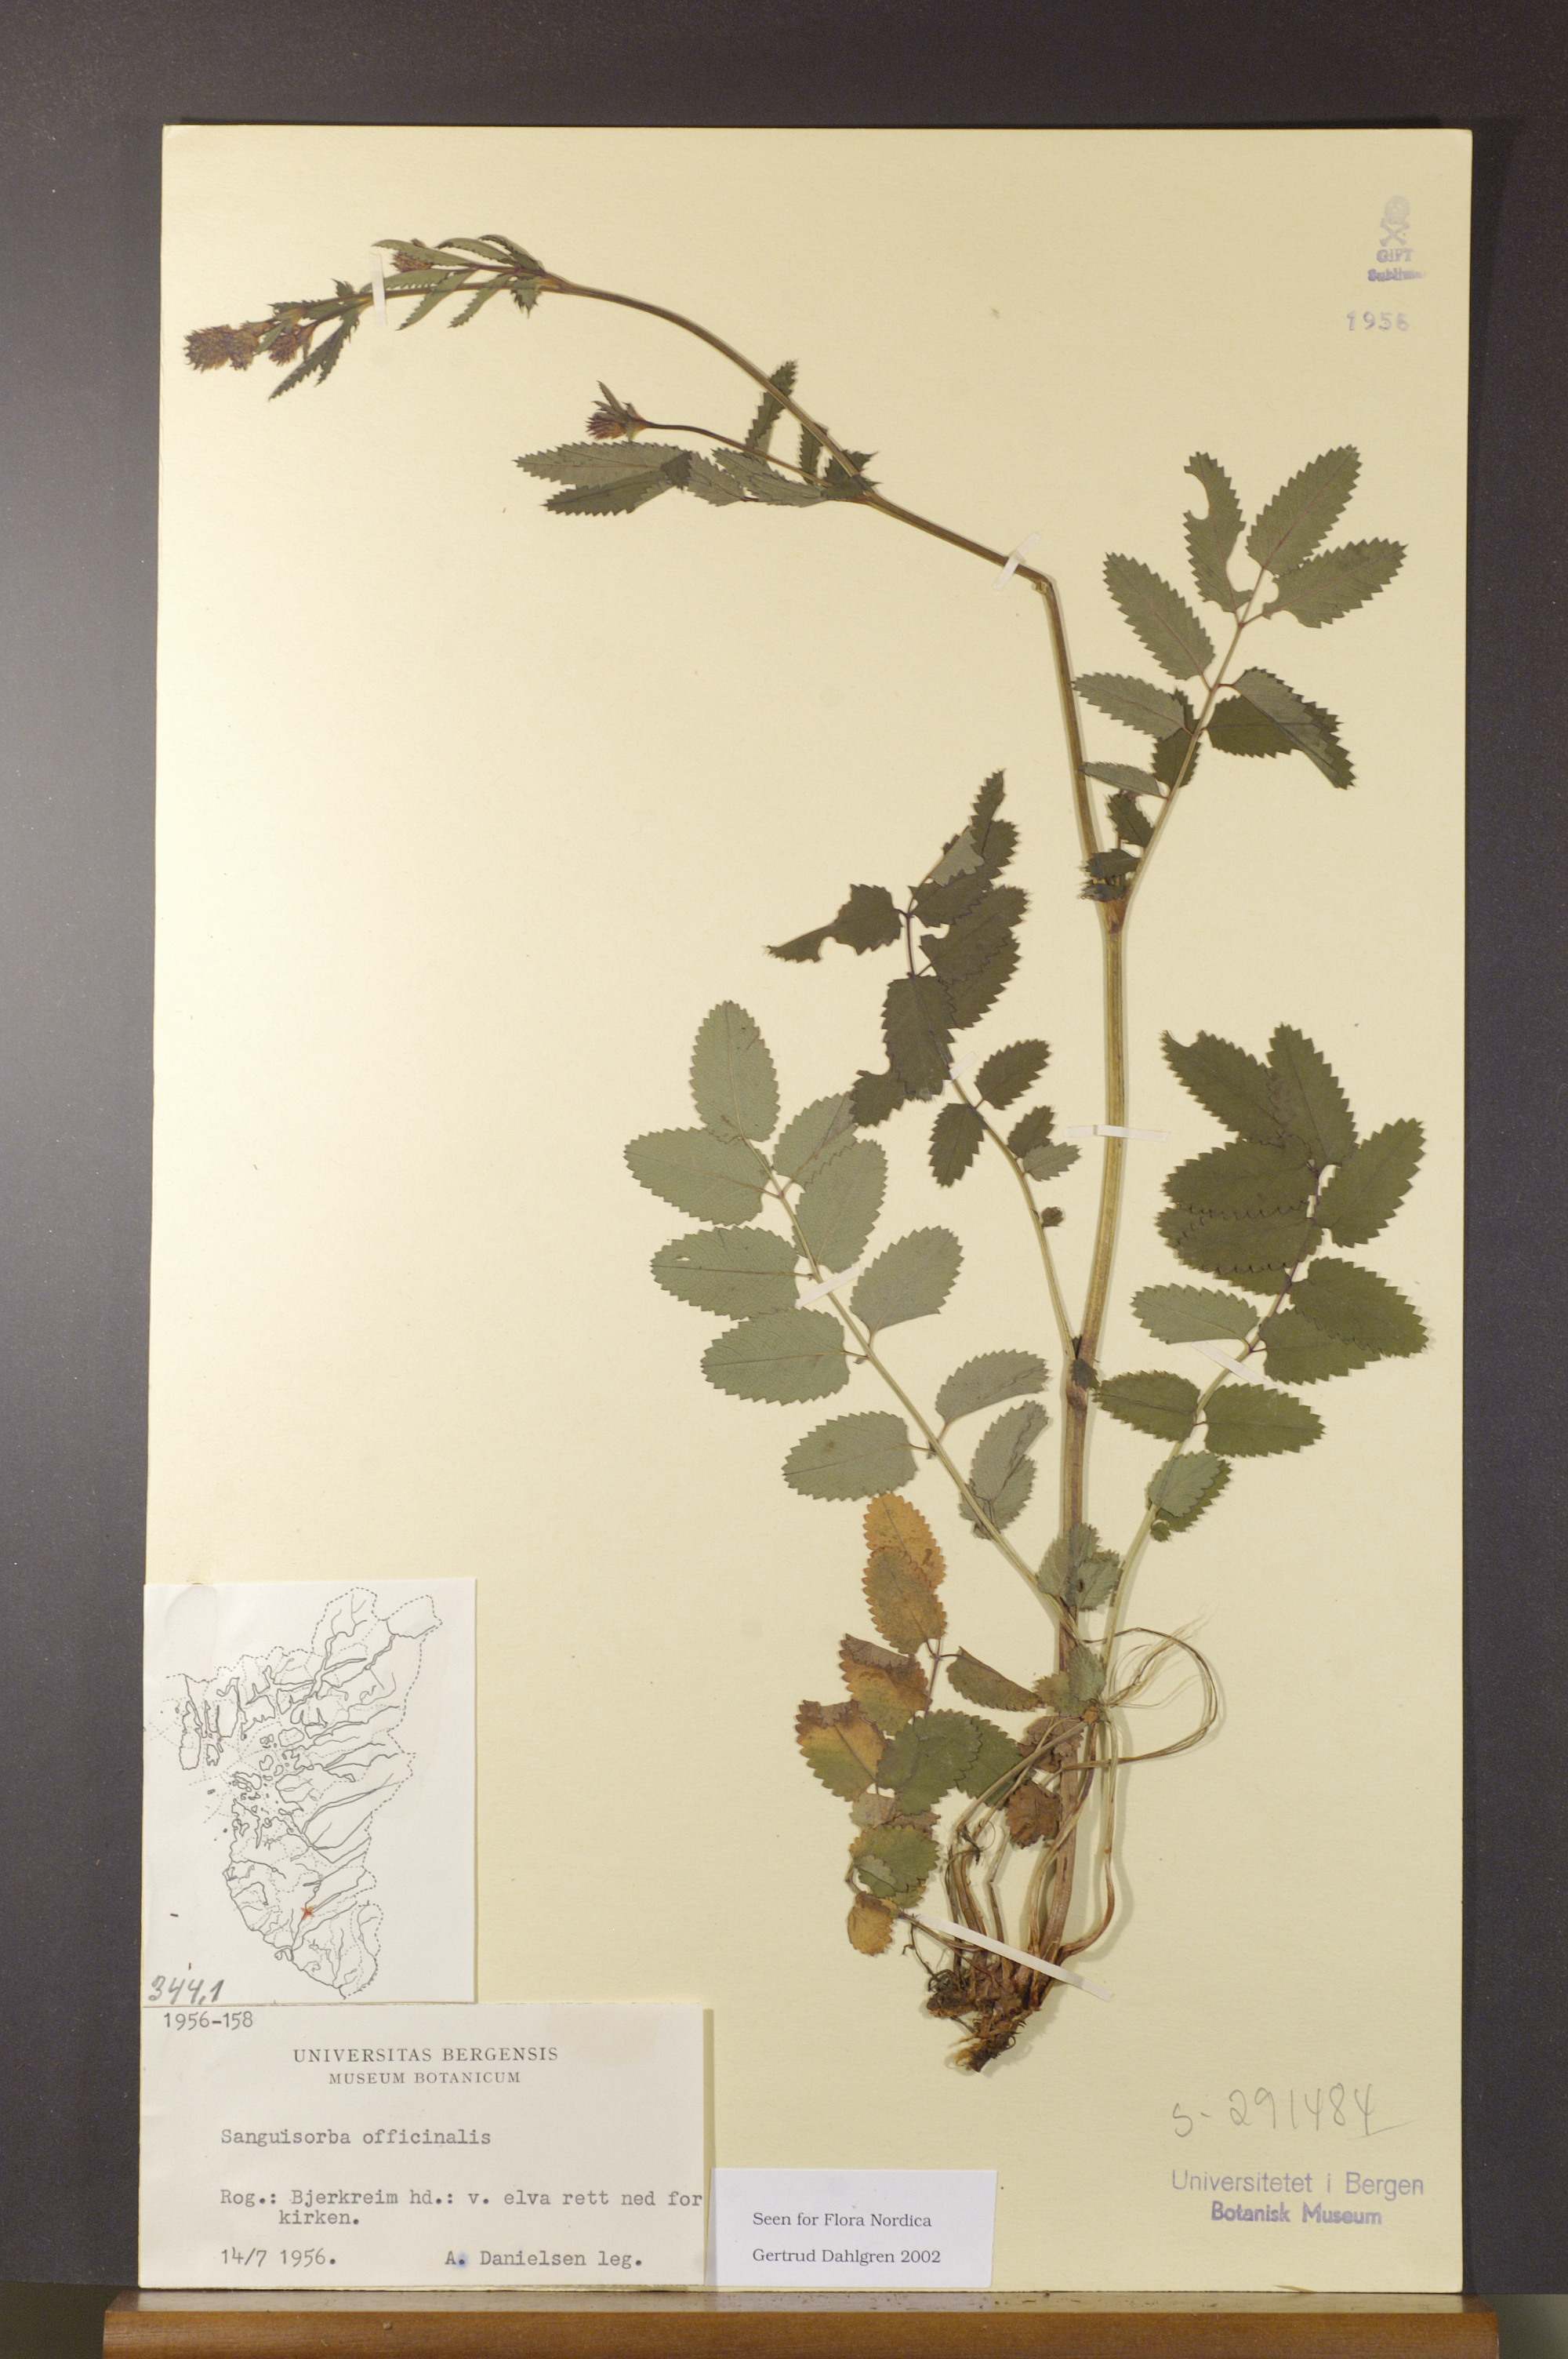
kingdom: Plantae
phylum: Tracheophyta
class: Magnoliopsida
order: Rosales
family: Rosaceae
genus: Sanguisorba
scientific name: Sanguisorba officinalis
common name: Great burnet
